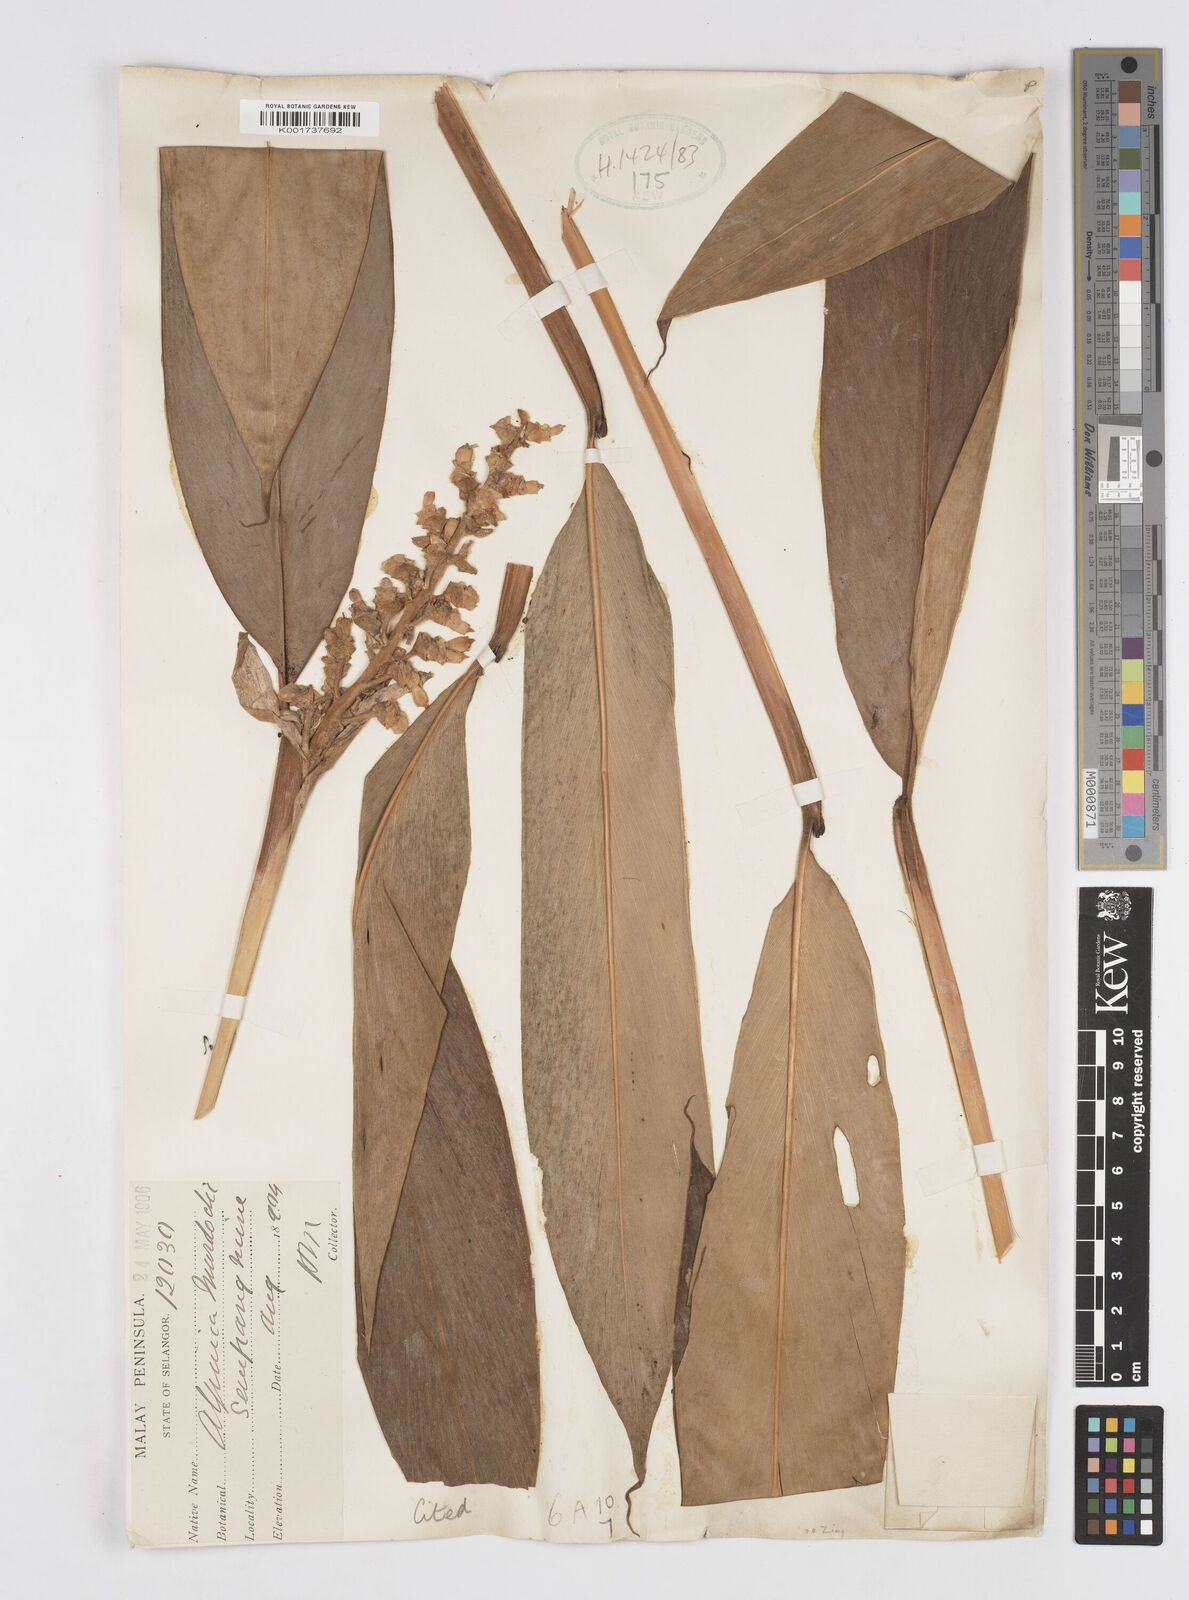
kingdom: Plantae
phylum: Tracheophyta
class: Liliopsida
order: Zingiberales
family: Zingiberaceae
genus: Alpinia
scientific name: Alpinia murdochii
